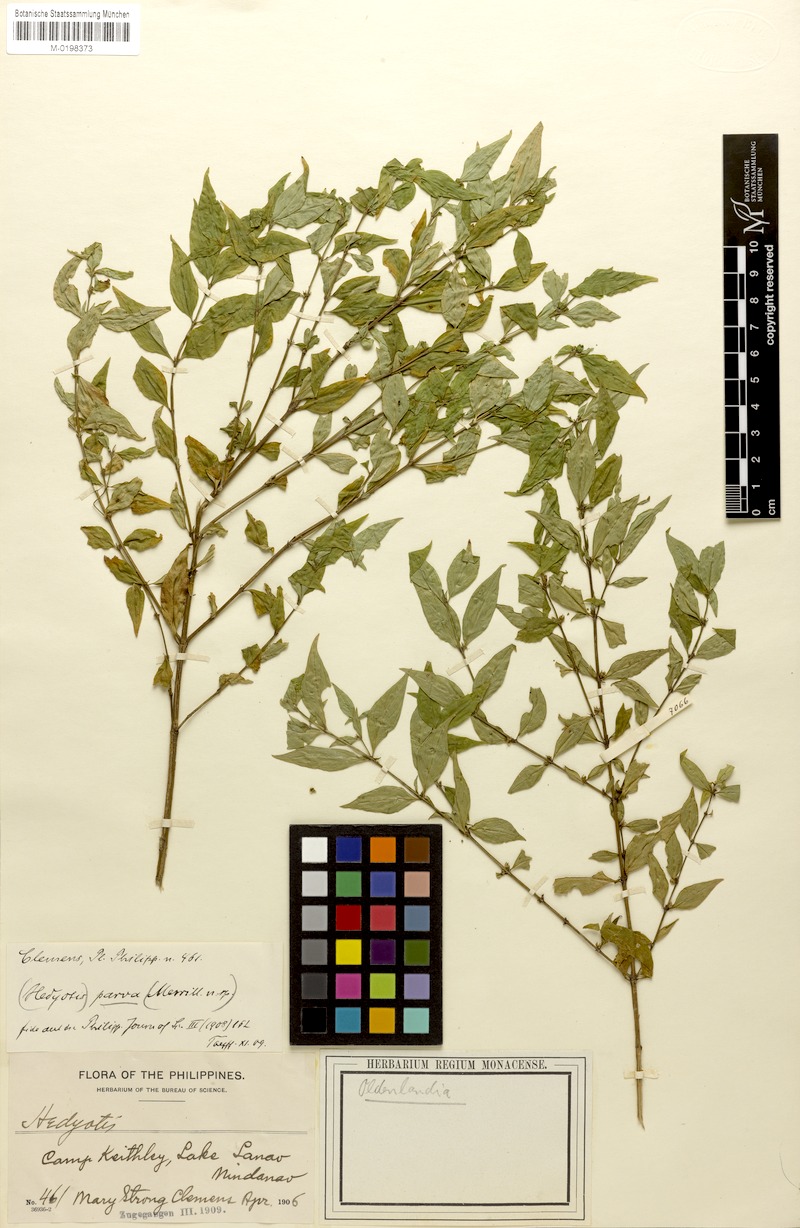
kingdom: Plantae
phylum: Tracheophyta
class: Magnoliopsida
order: Gentianales
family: Rubiaceae
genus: Oldenlandia
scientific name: Oldenlandia parva
